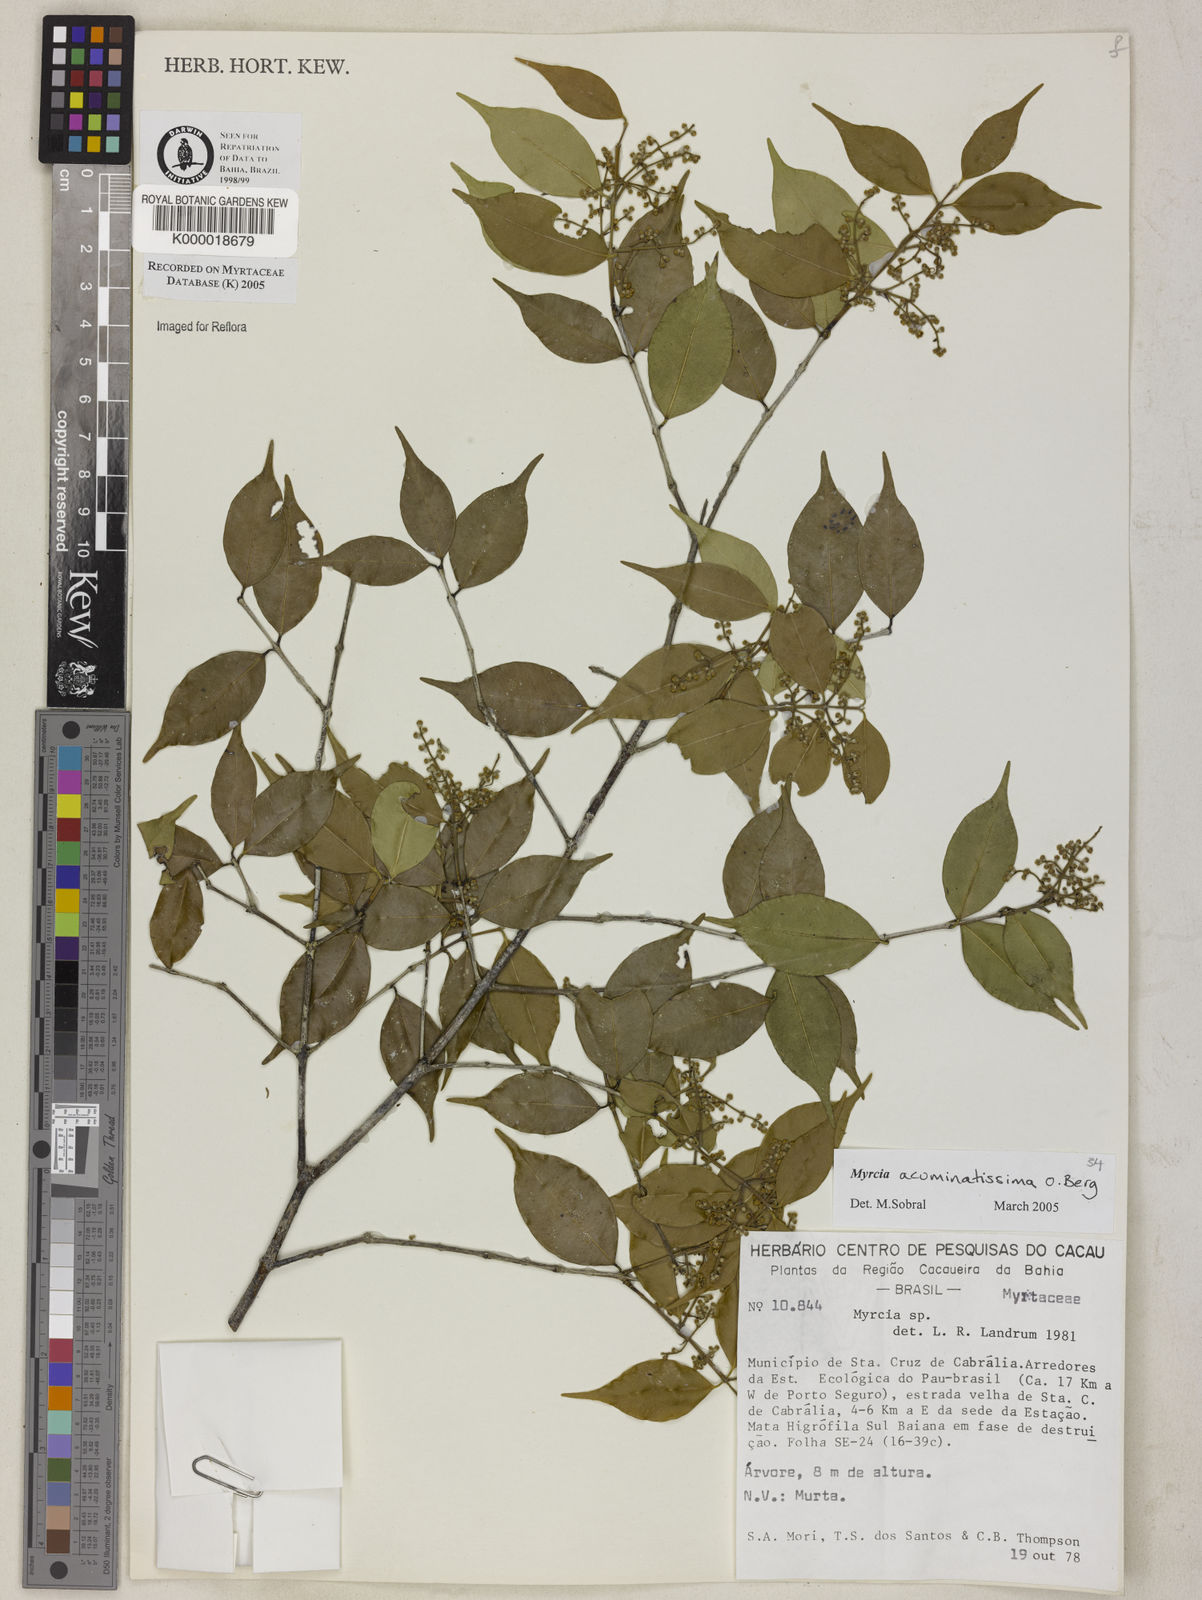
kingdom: Plantae
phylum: Tracheophyta
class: Magnoliopsida
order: Myrtales
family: Myrtaceae
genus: Myrcia
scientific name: Myrcia
